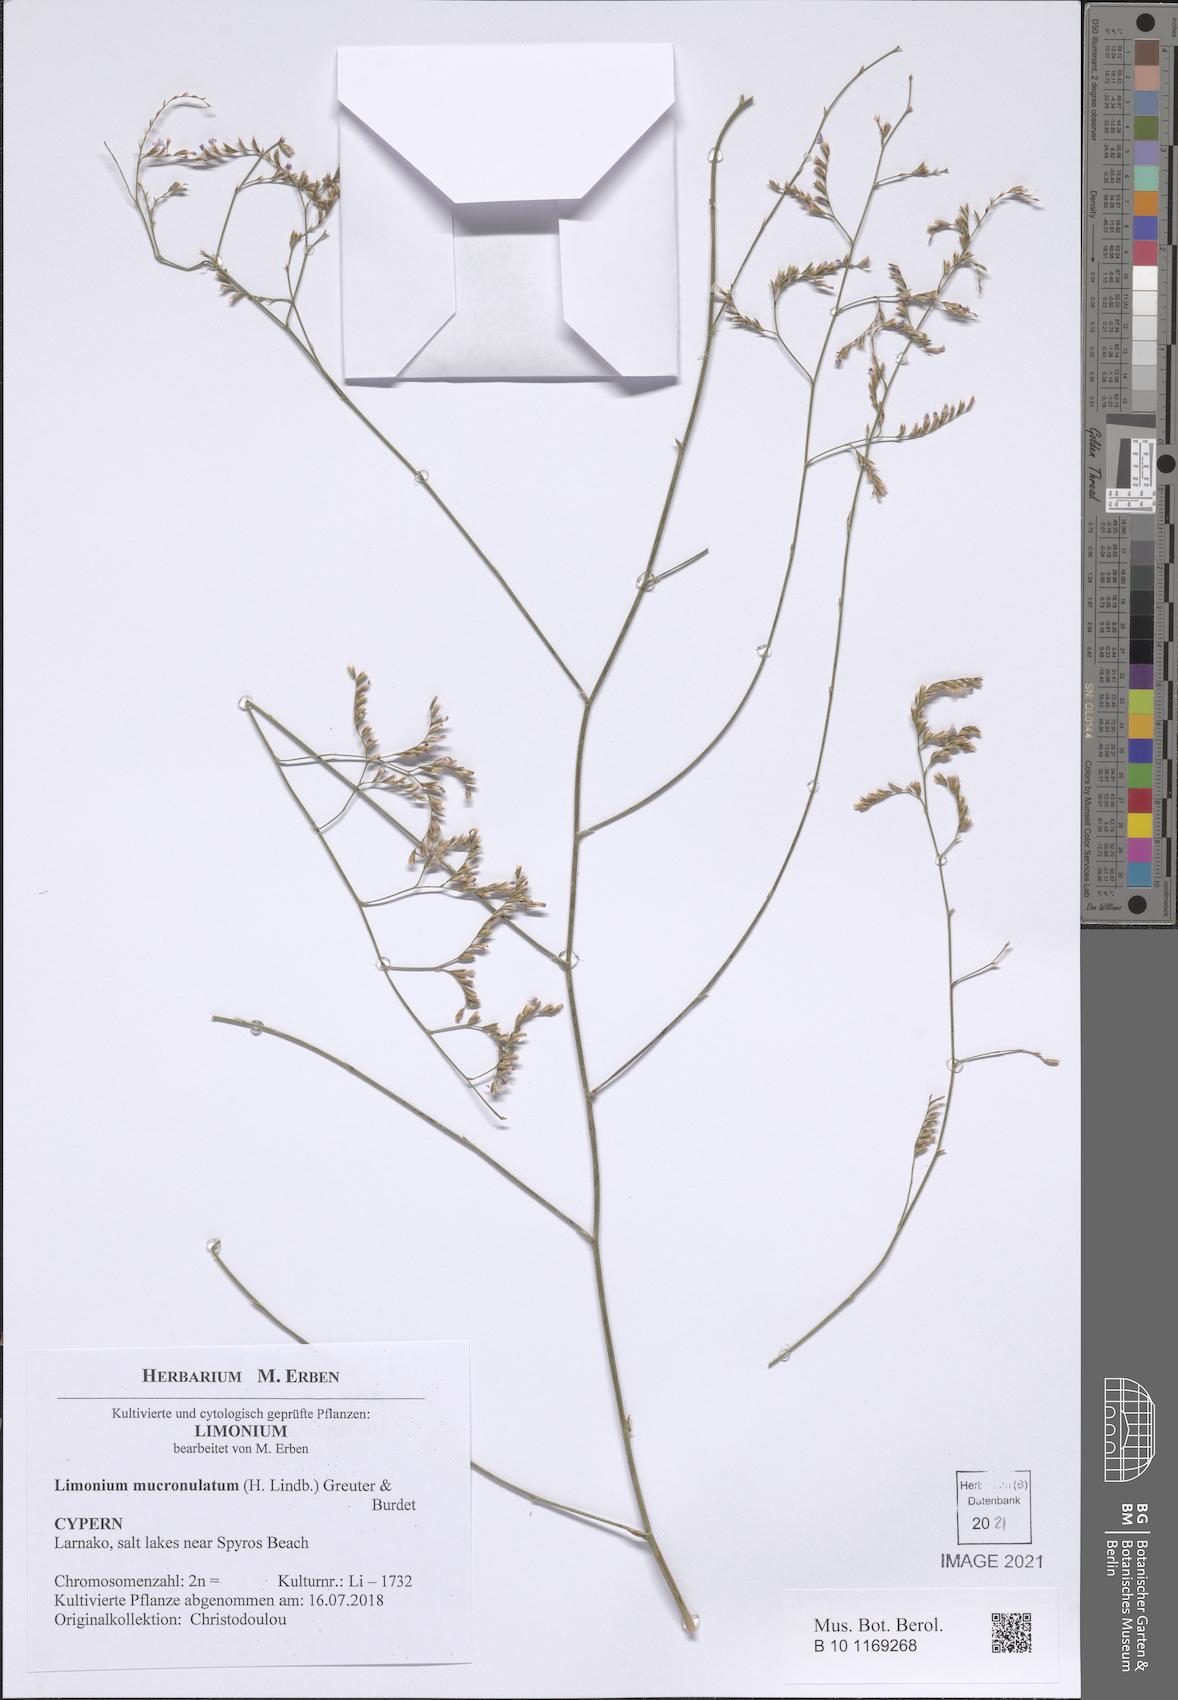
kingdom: Plantae
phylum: Tracheophyta
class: Magnoliopsida
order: Caryophyllales
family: Plumbaginaceae
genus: Limonium
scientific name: Limonium mucronulatum
